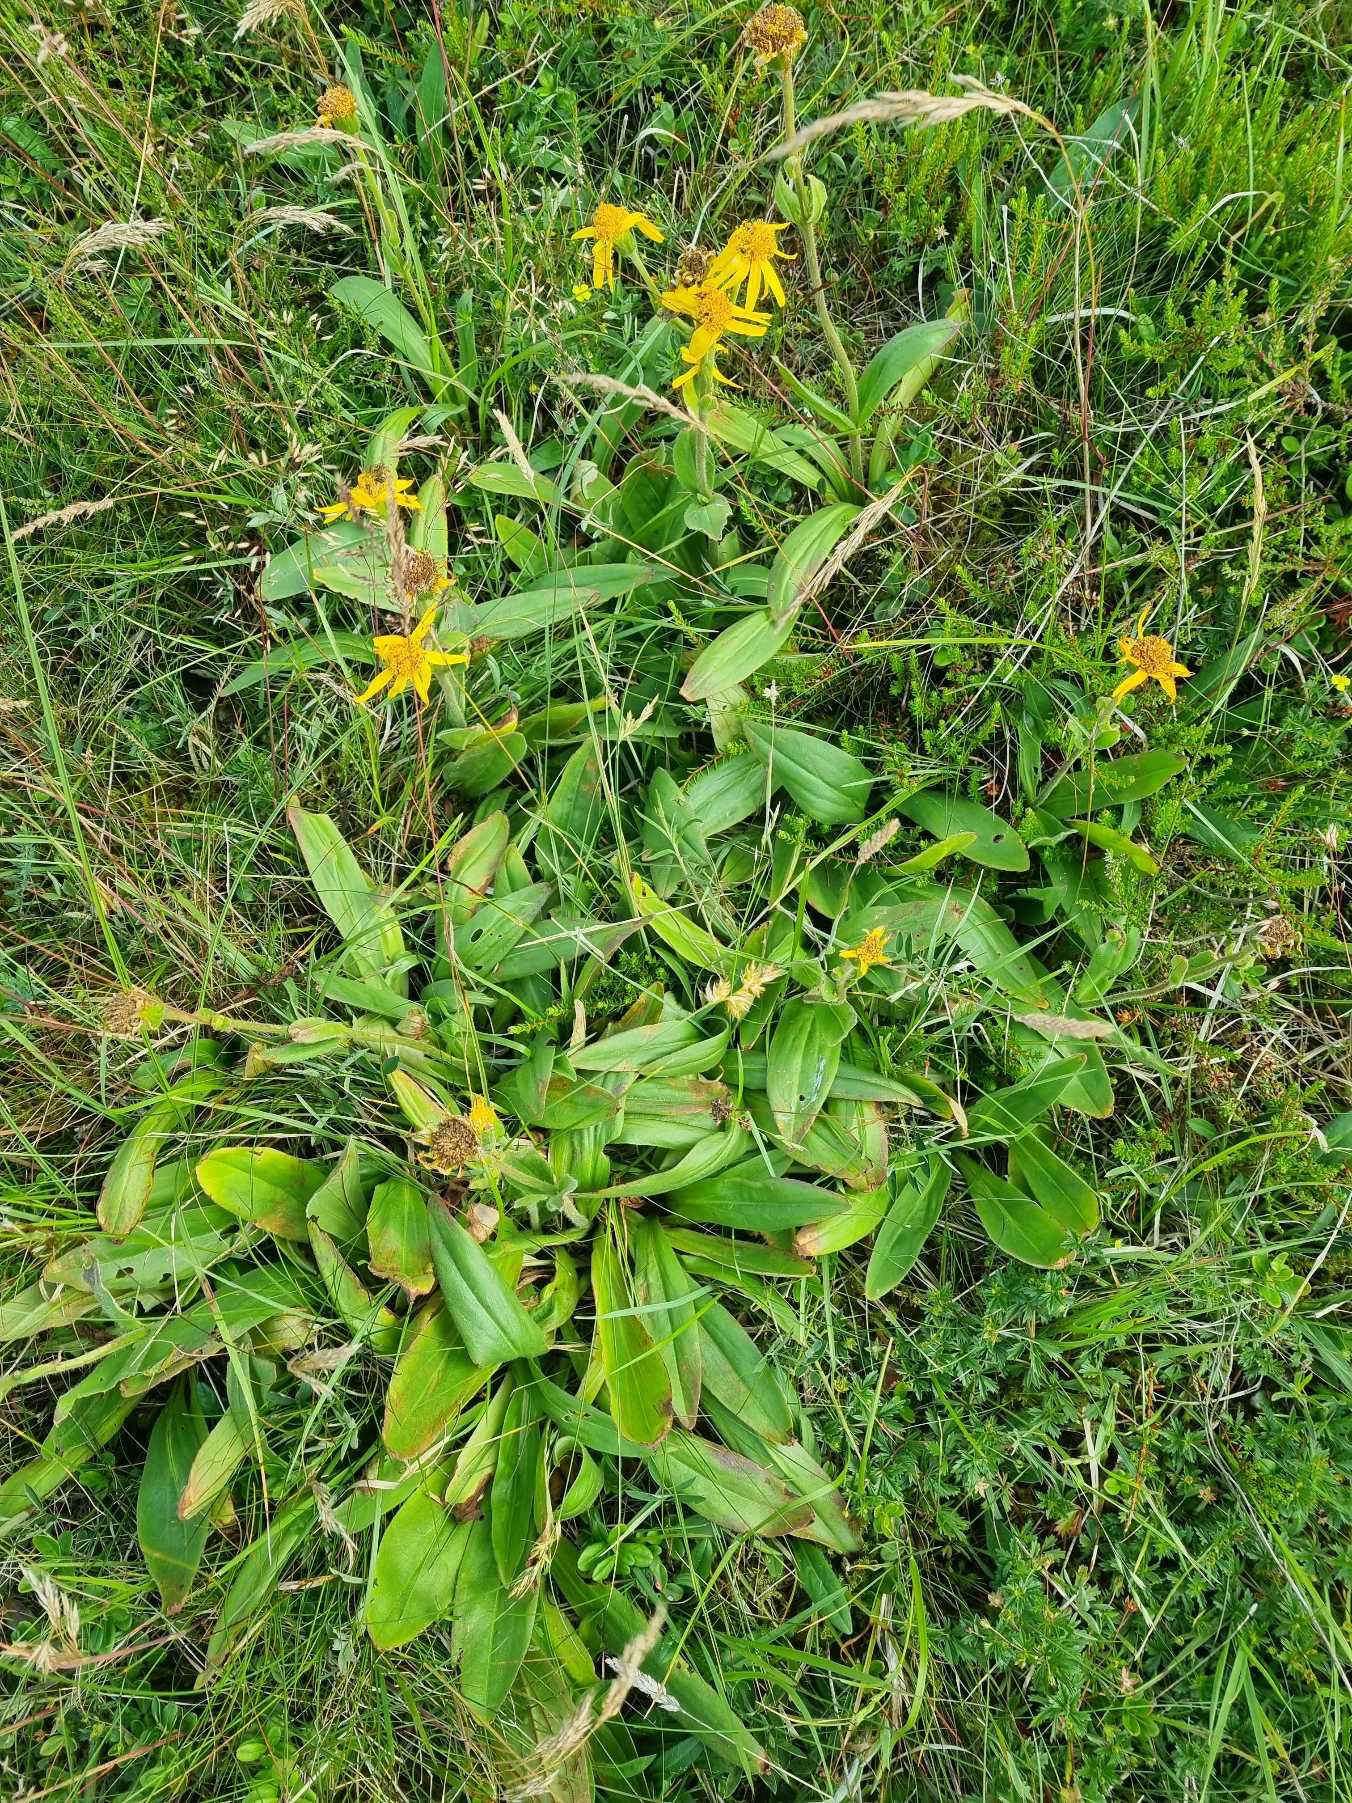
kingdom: Plantae
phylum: Tracheophyta
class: Magnoliopsida
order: Asterales
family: Asteraceae
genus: Arnica
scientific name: Arnica montana
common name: Guldblomme
